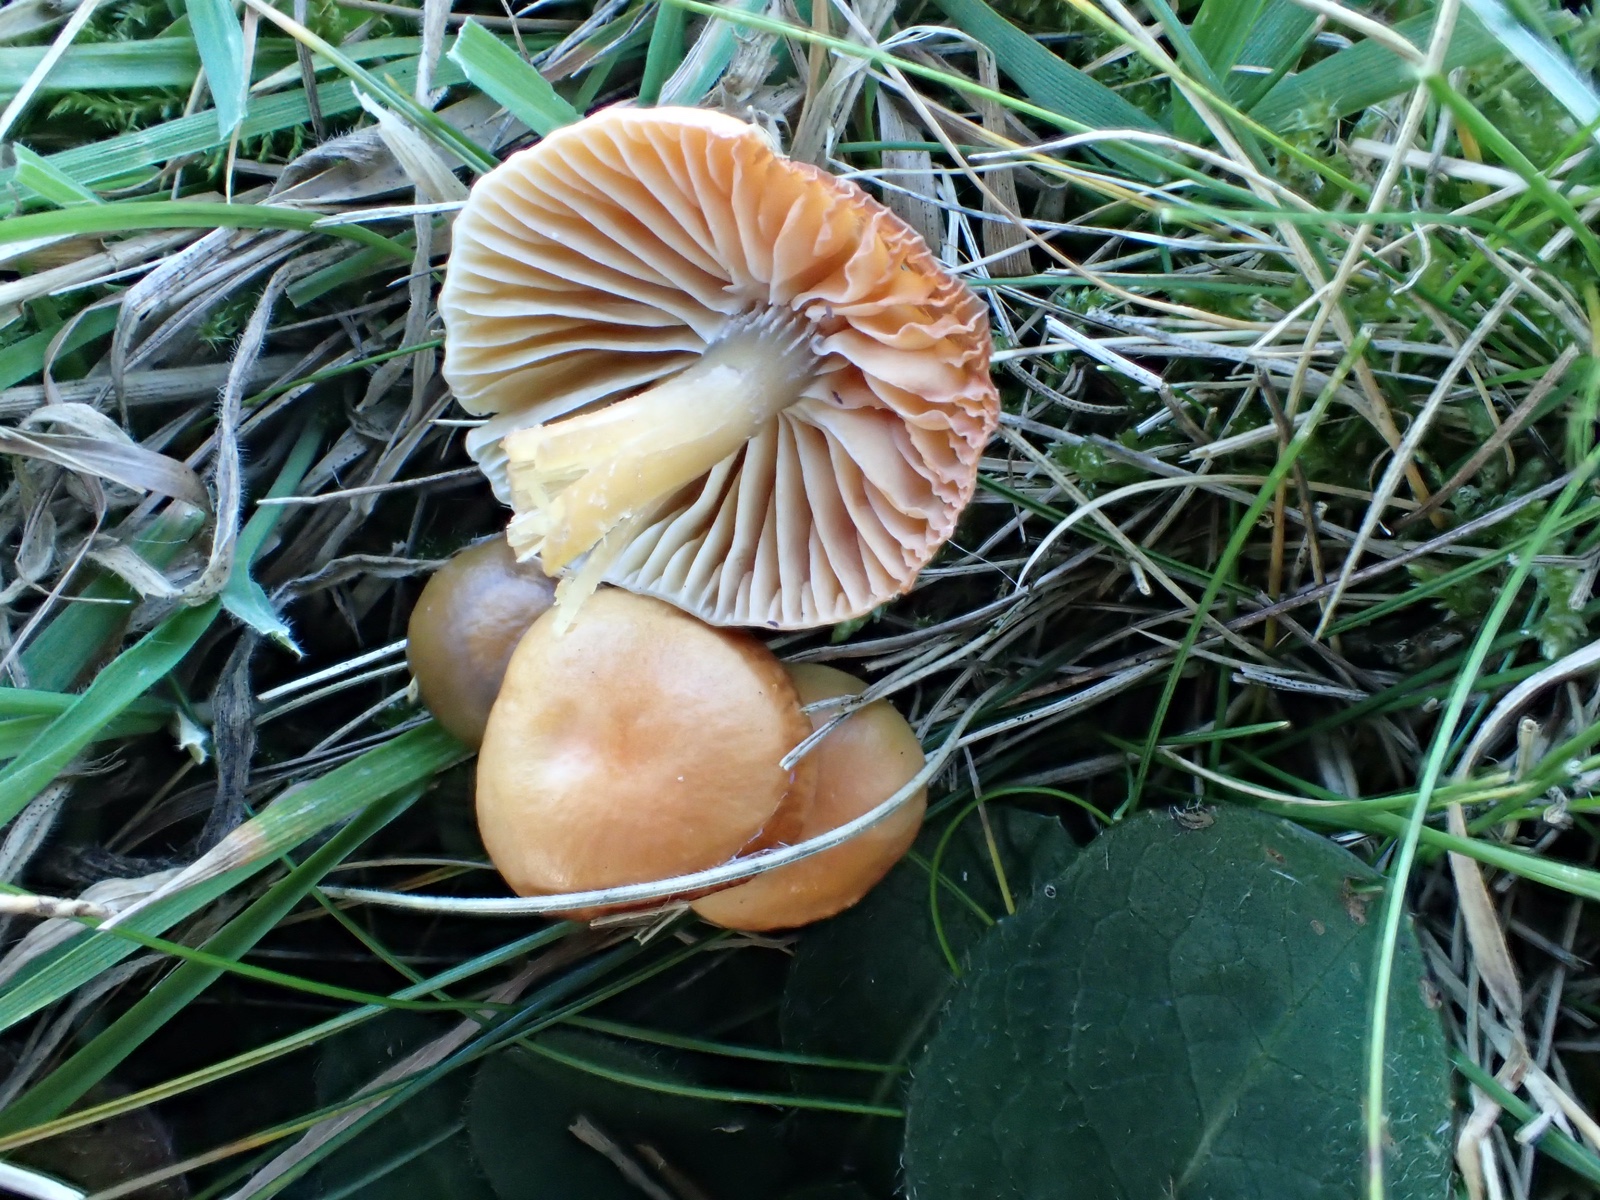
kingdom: Fungi
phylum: Basidiomycota
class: Agaricomycetes
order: Agaricales
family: Hygrophoraceae
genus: Gliophorus
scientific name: Gliophorus laetus
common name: brusk-vokshat
